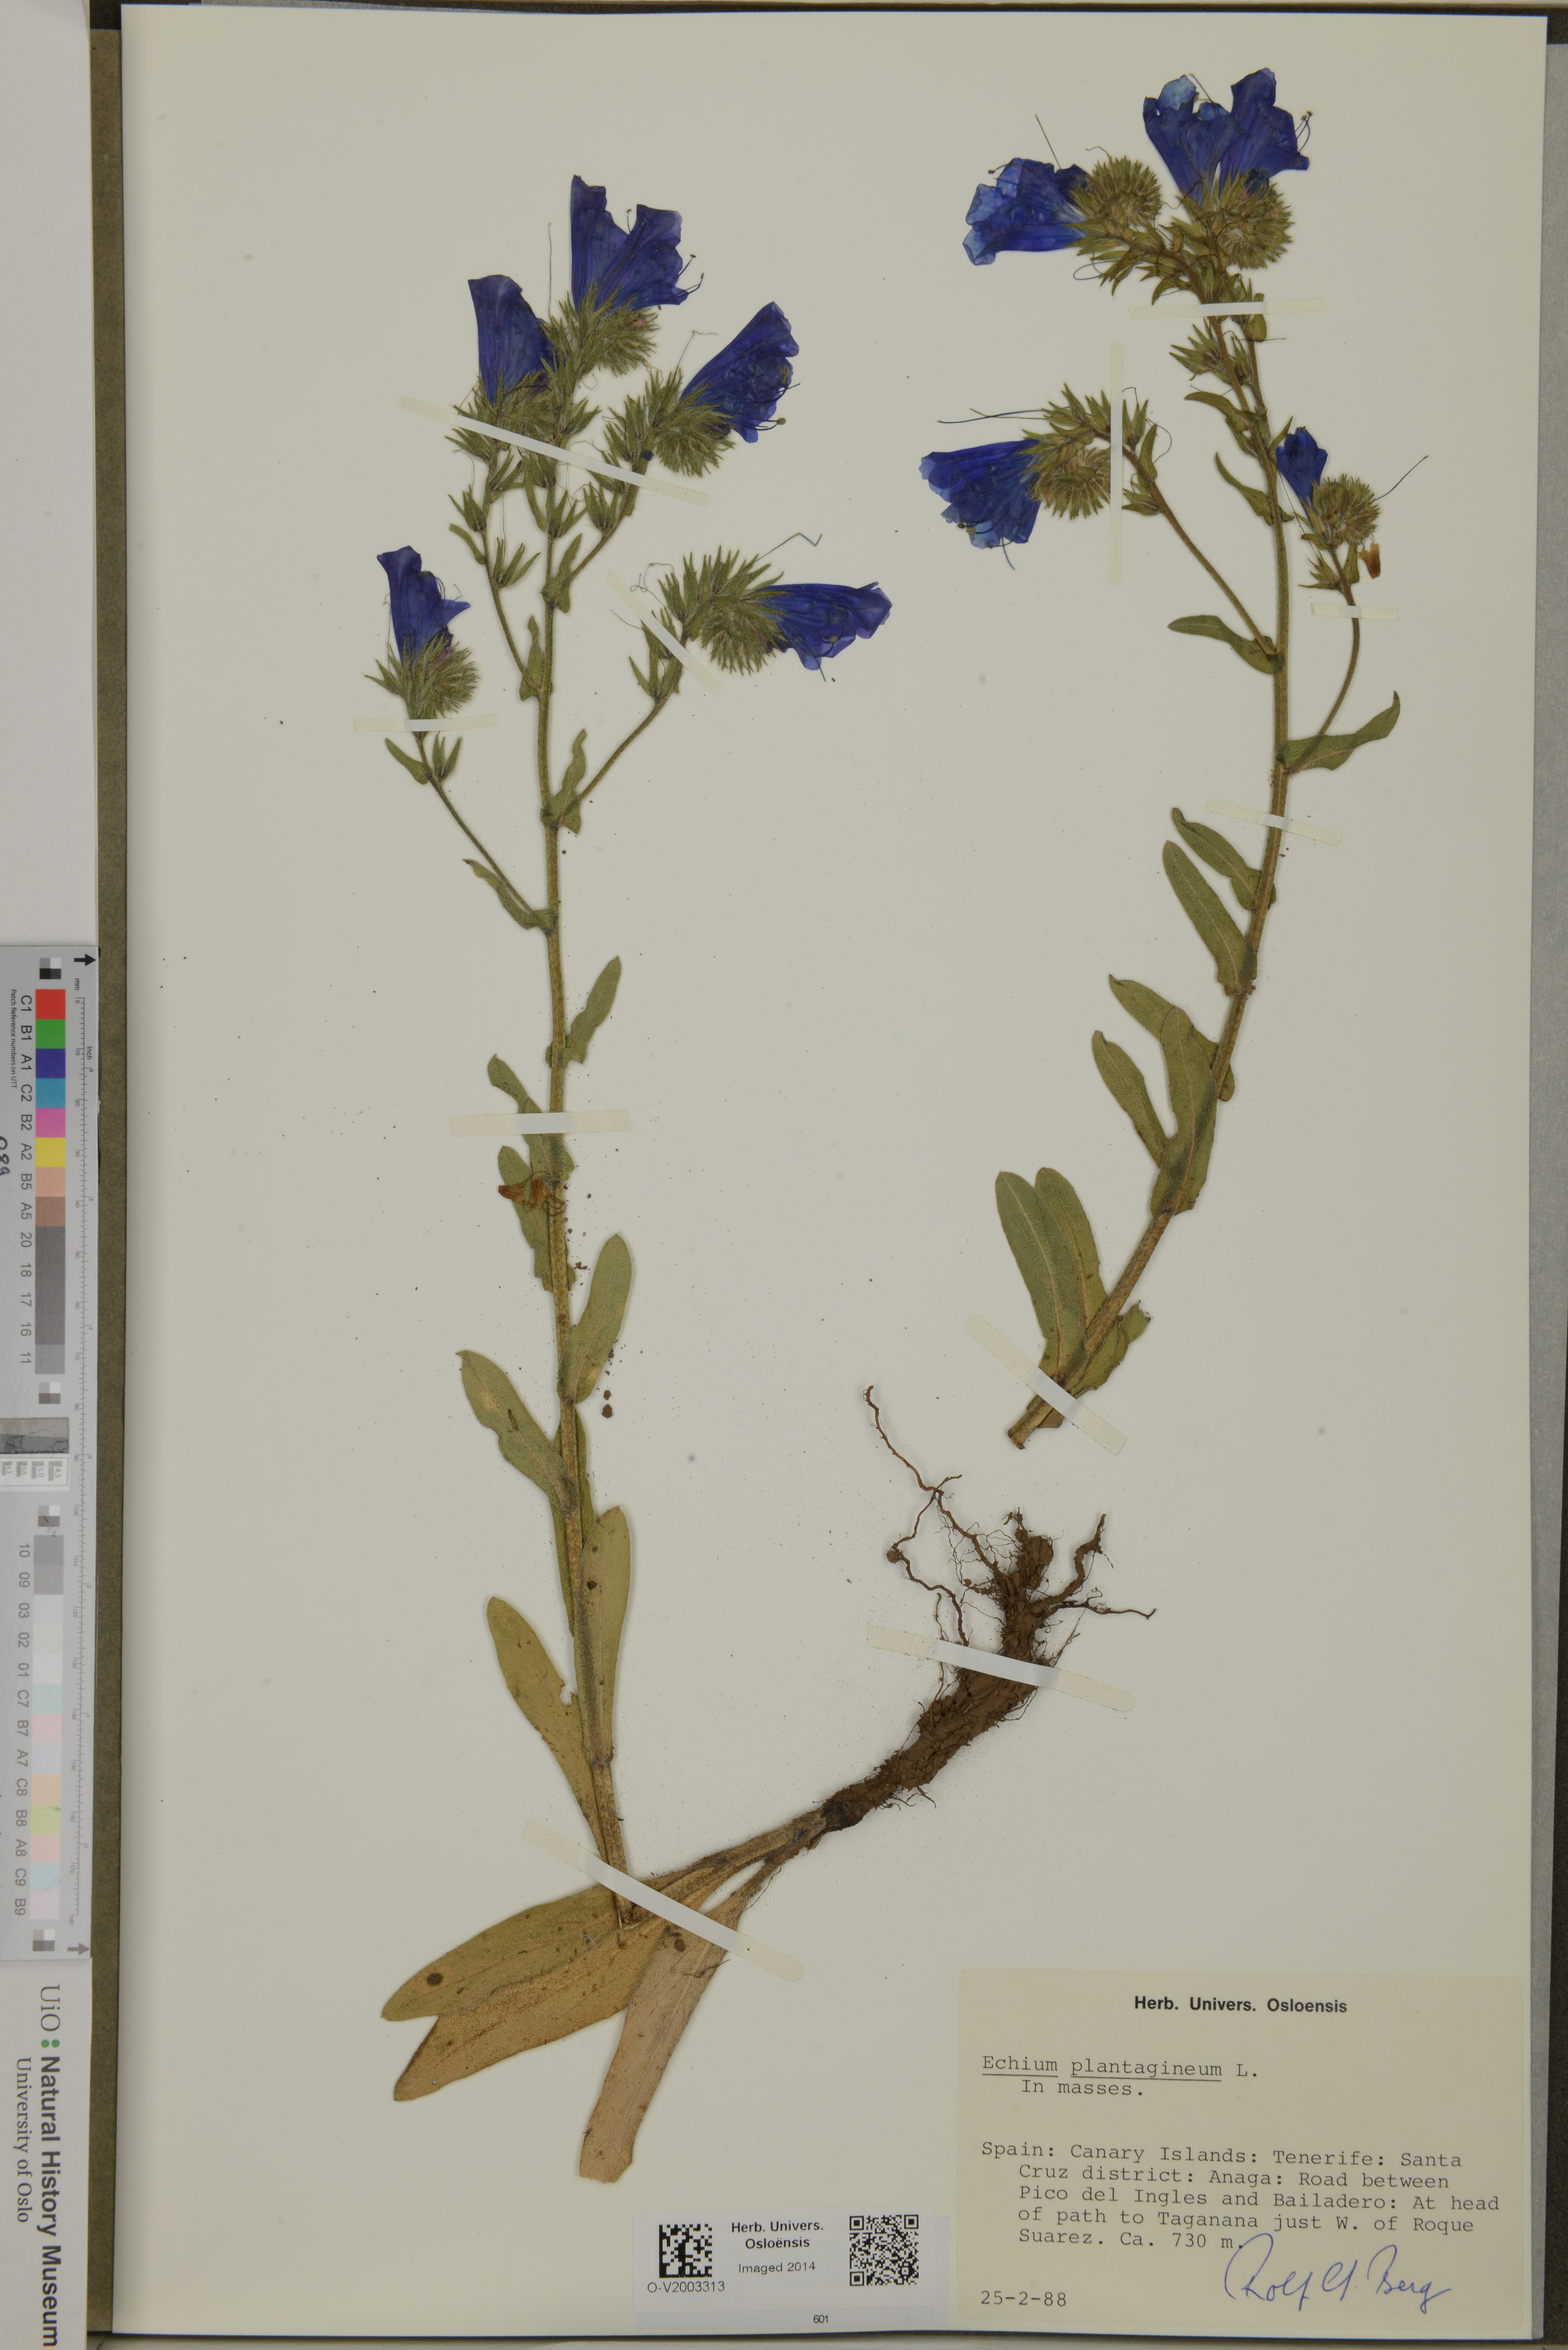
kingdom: Plantae
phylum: Tracheophyta
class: Magnoliopsida
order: Boraginales
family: Boraginaceae
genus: Echium
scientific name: Echium plantagineum
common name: Purple viper's-bugloss
